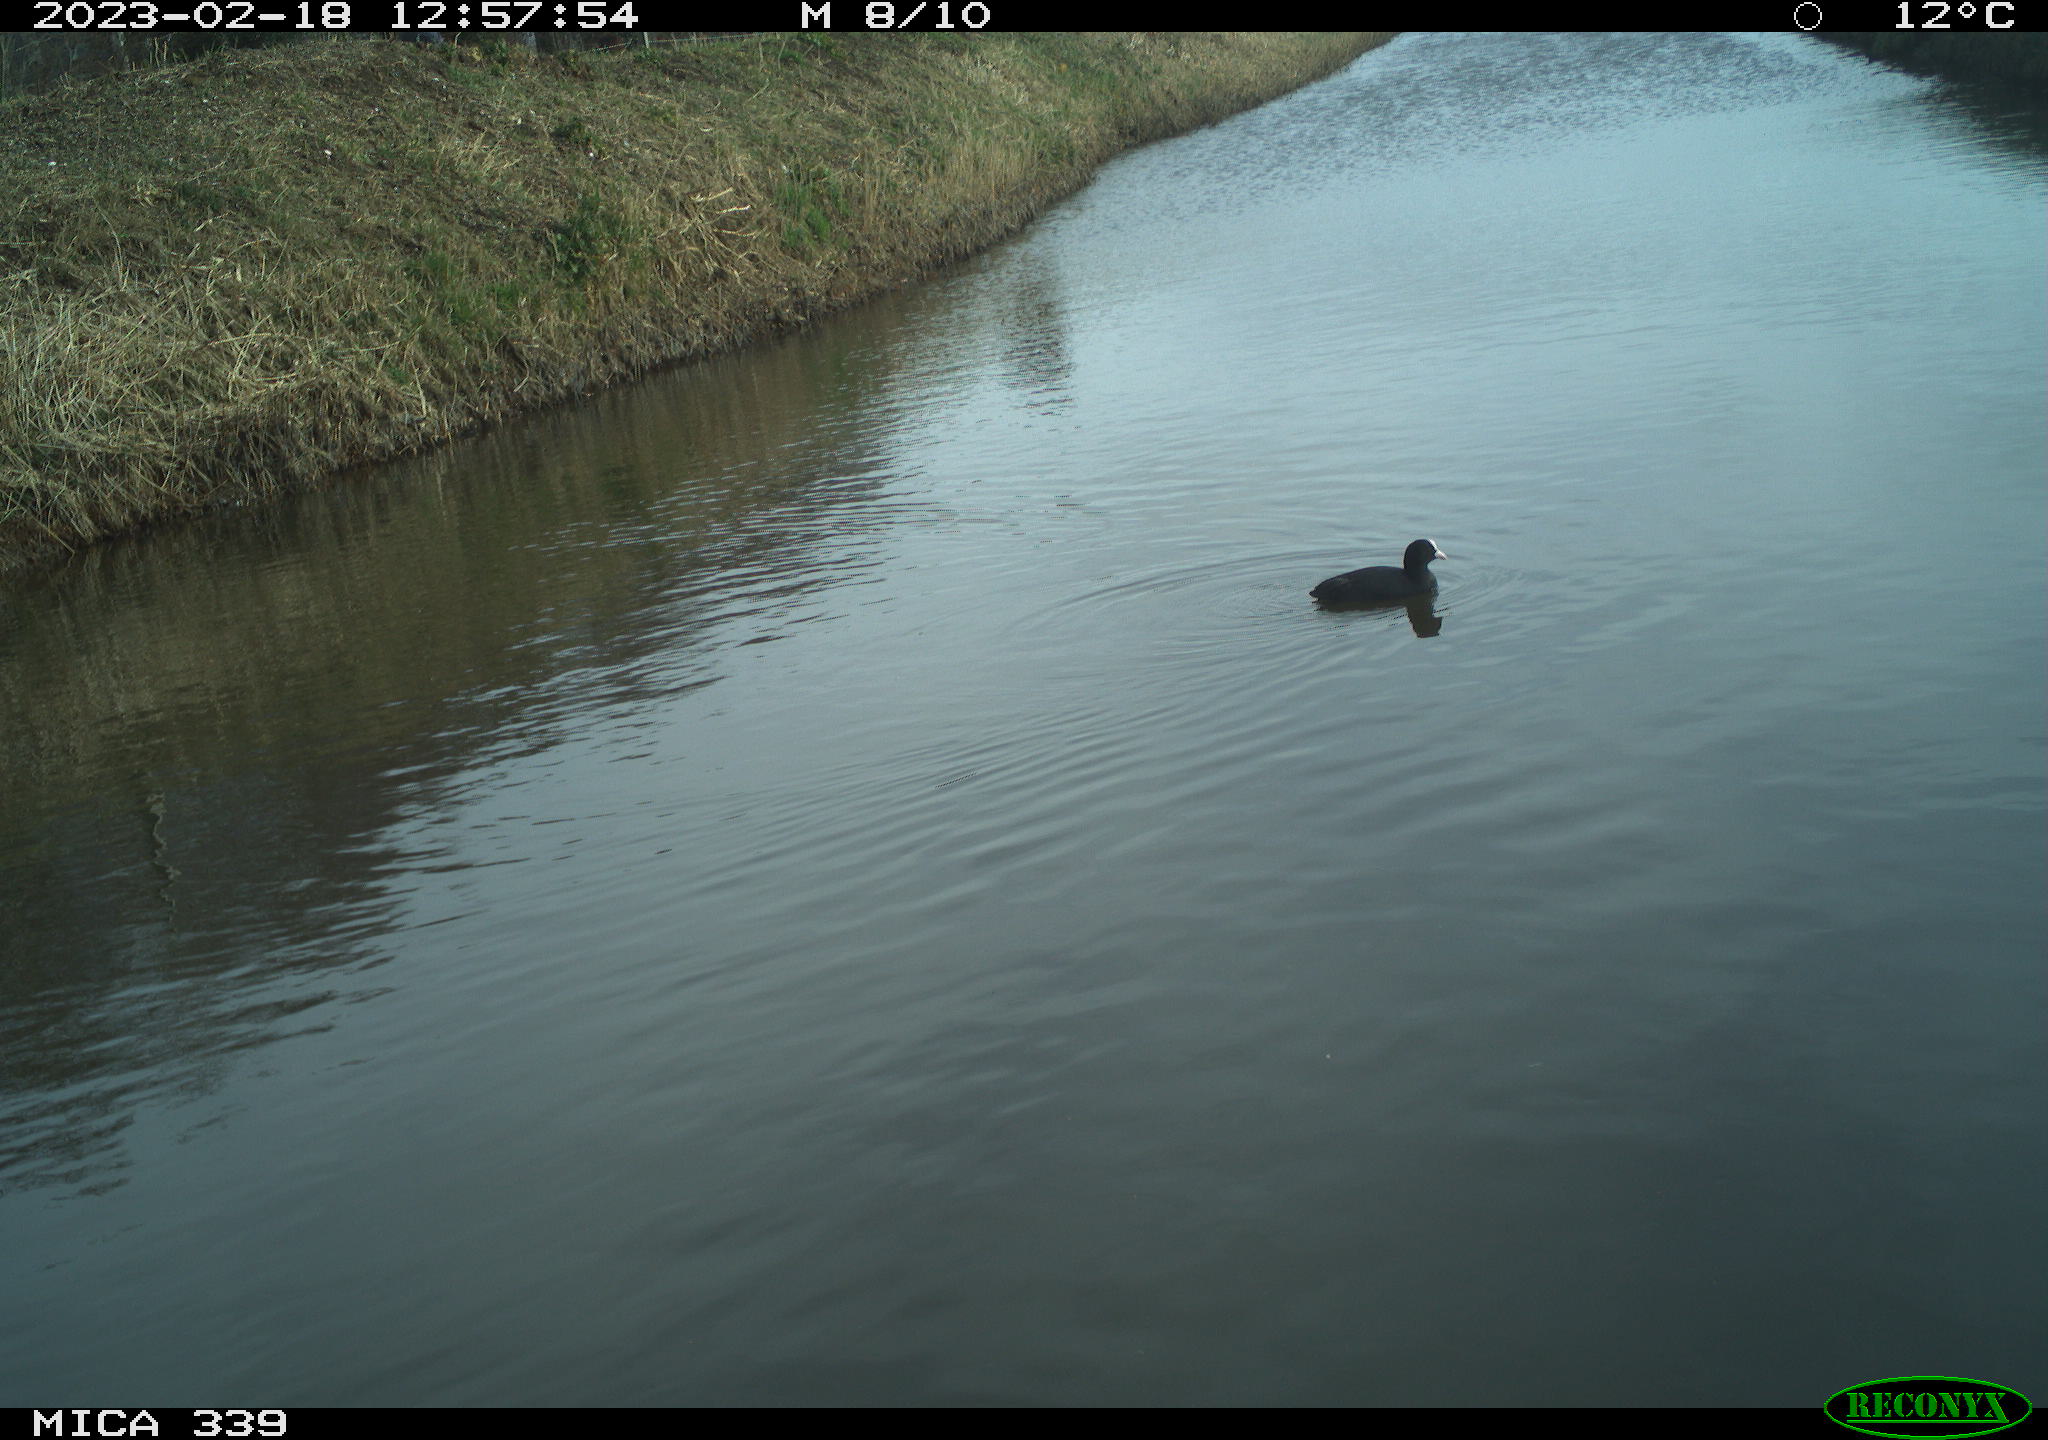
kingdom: Animalia
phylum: Chordata
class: Aves
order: Gruiformes
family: Rallidae
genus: Fulica
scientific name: Fulica atra
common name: Eurasian coot
